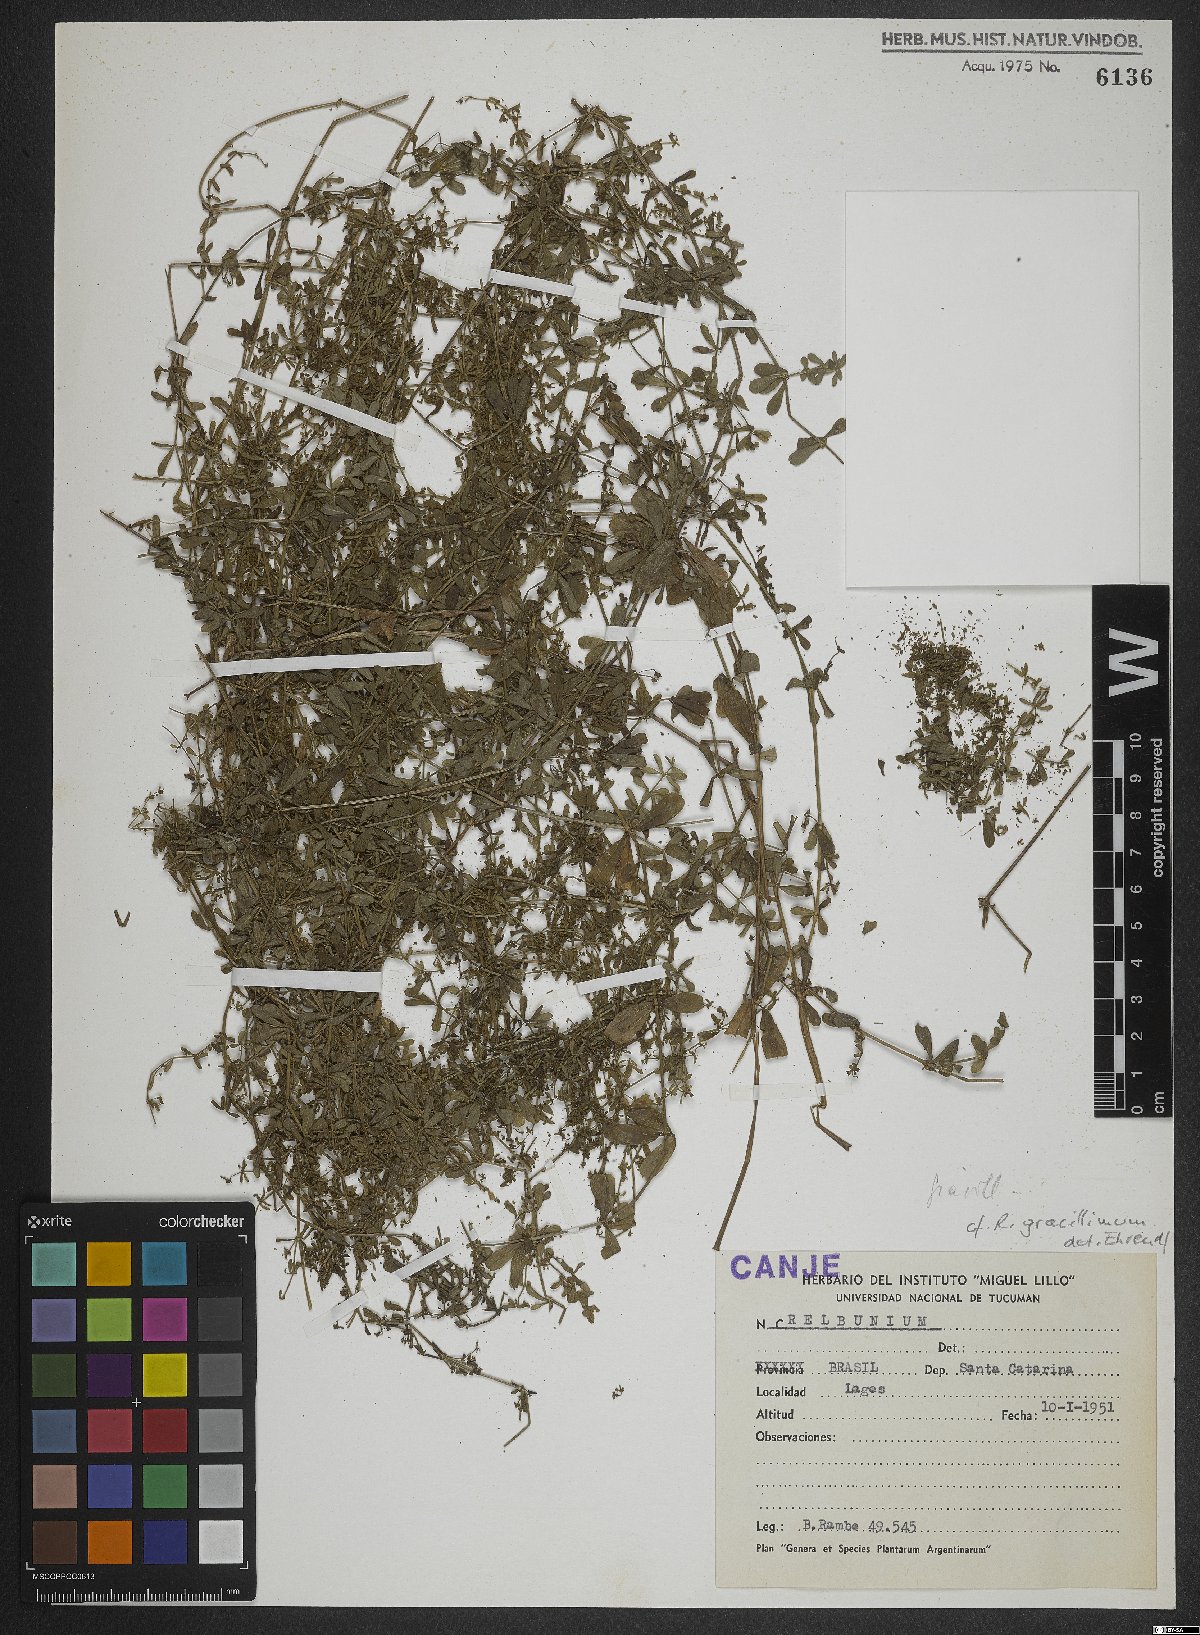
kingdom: Plantae
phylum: Tracheophyta
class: Magnoliopsida
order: Gentianales
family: Rubiaceae
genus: Galium
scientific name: Galium hypocarpium
